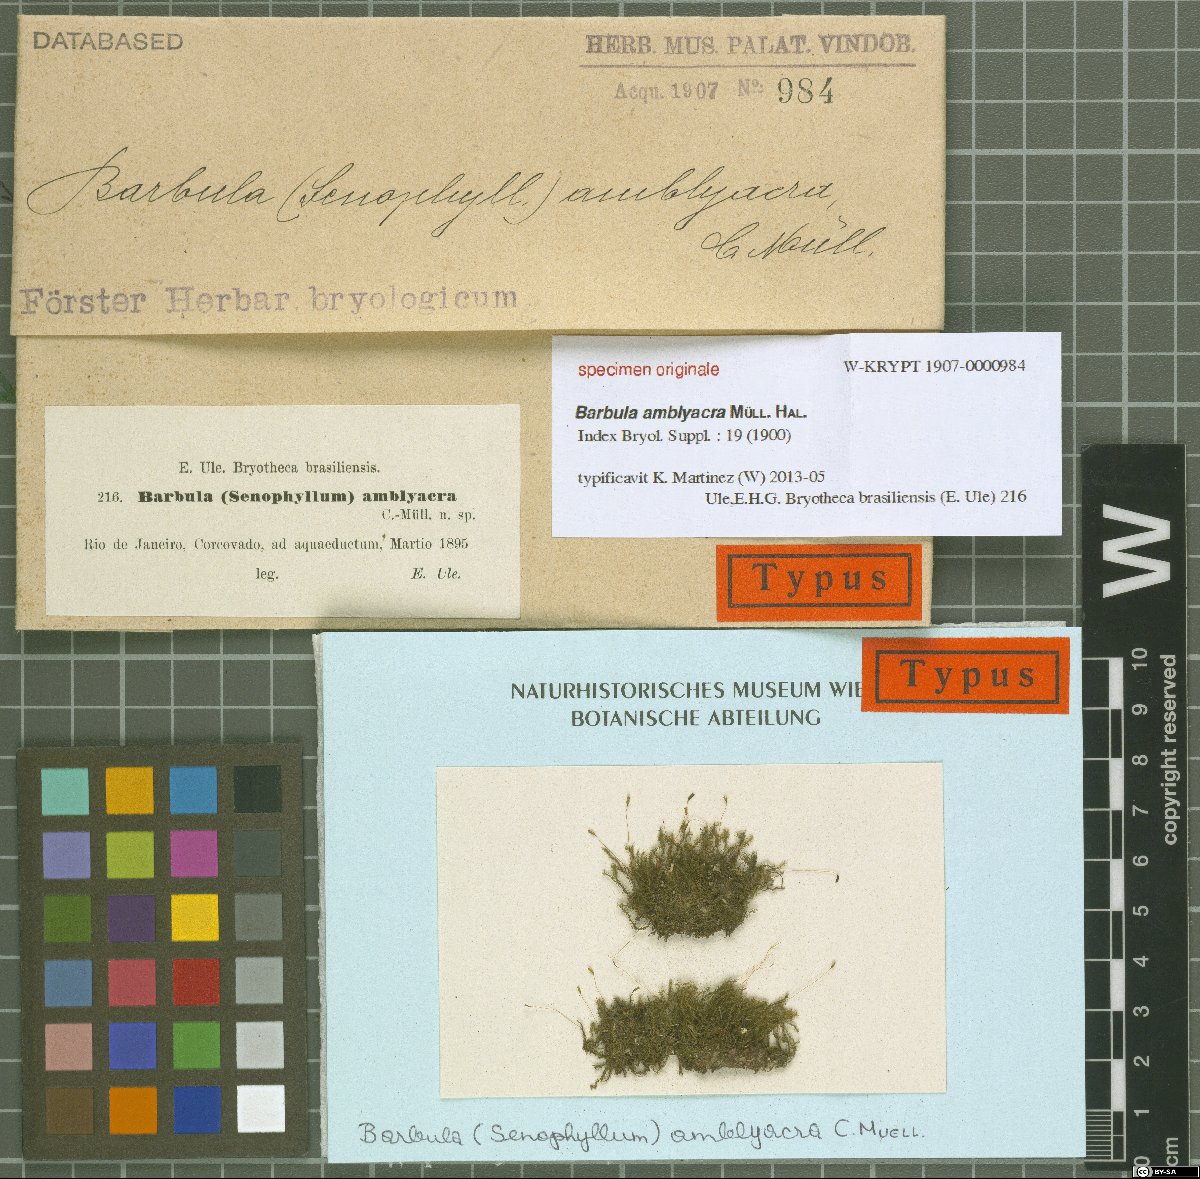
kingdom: Plantae
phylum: Bryophyta
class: Bryopsida
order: Pottiales
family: Pottiaceae
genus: Barbula
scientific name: Barbula
